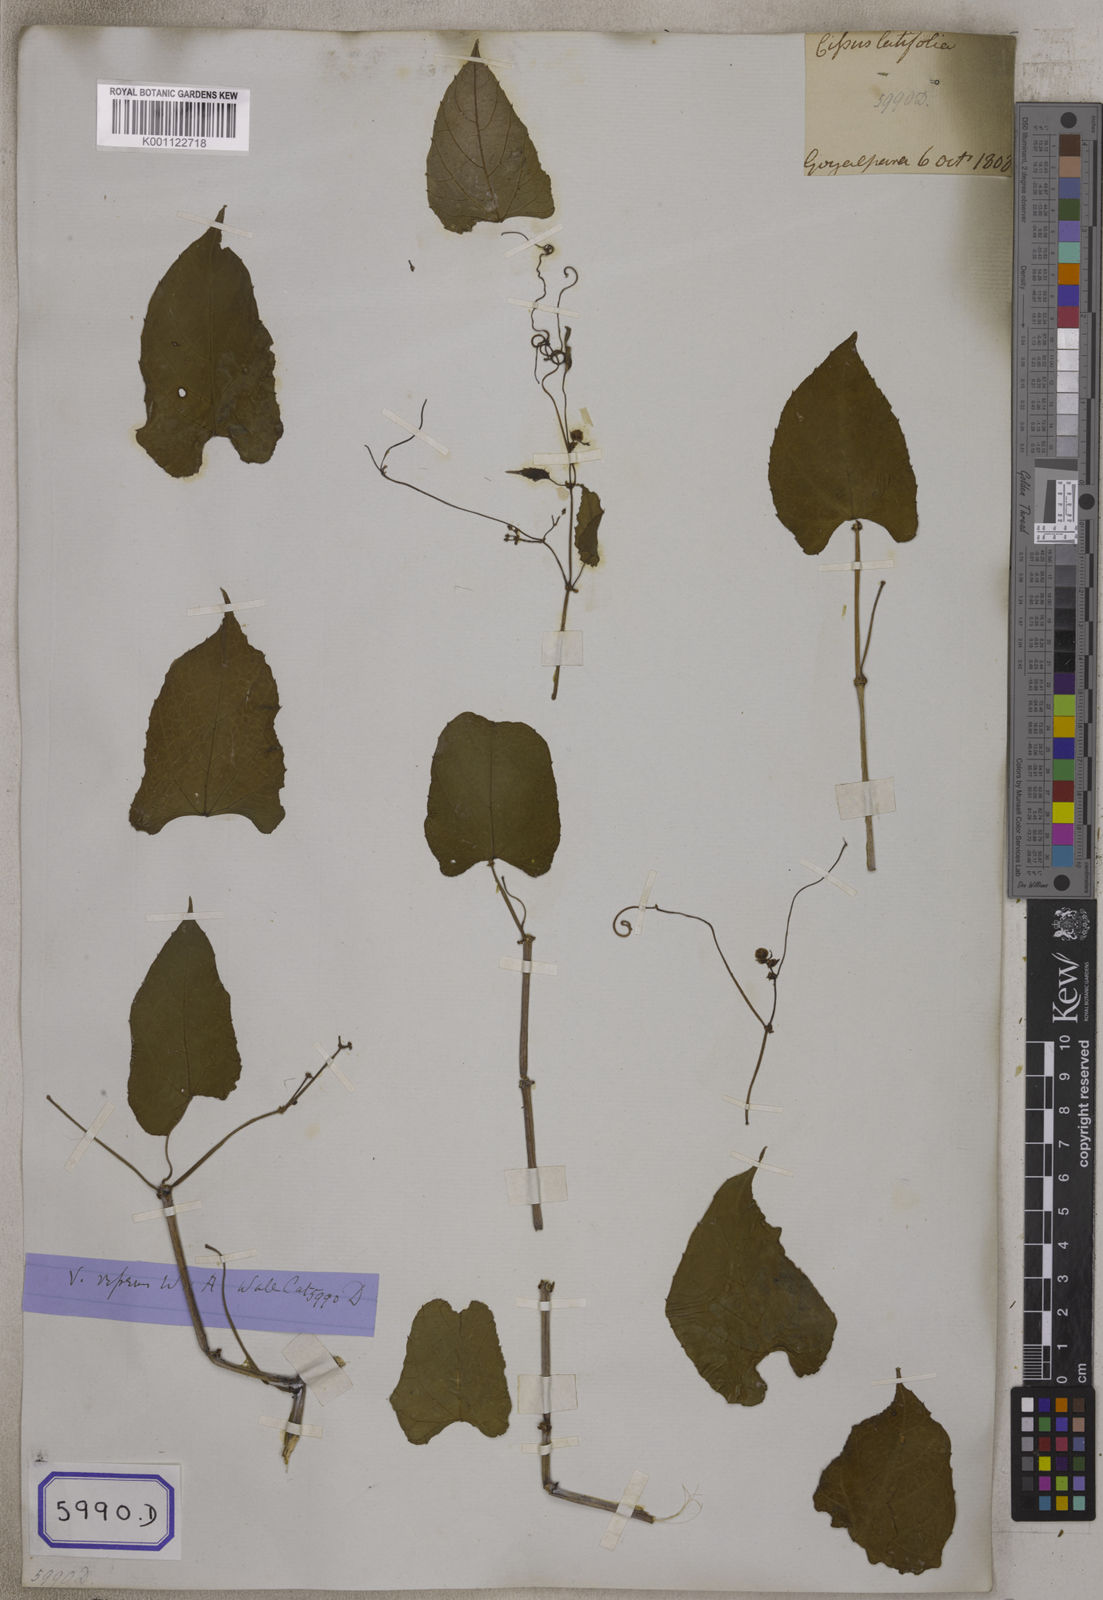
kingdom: Plantae
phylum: Tracheophyta
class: Magnoliopsida
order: Vitales
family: Vitaceae
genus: Cissus
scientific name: Cissus repens
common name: Cissus
